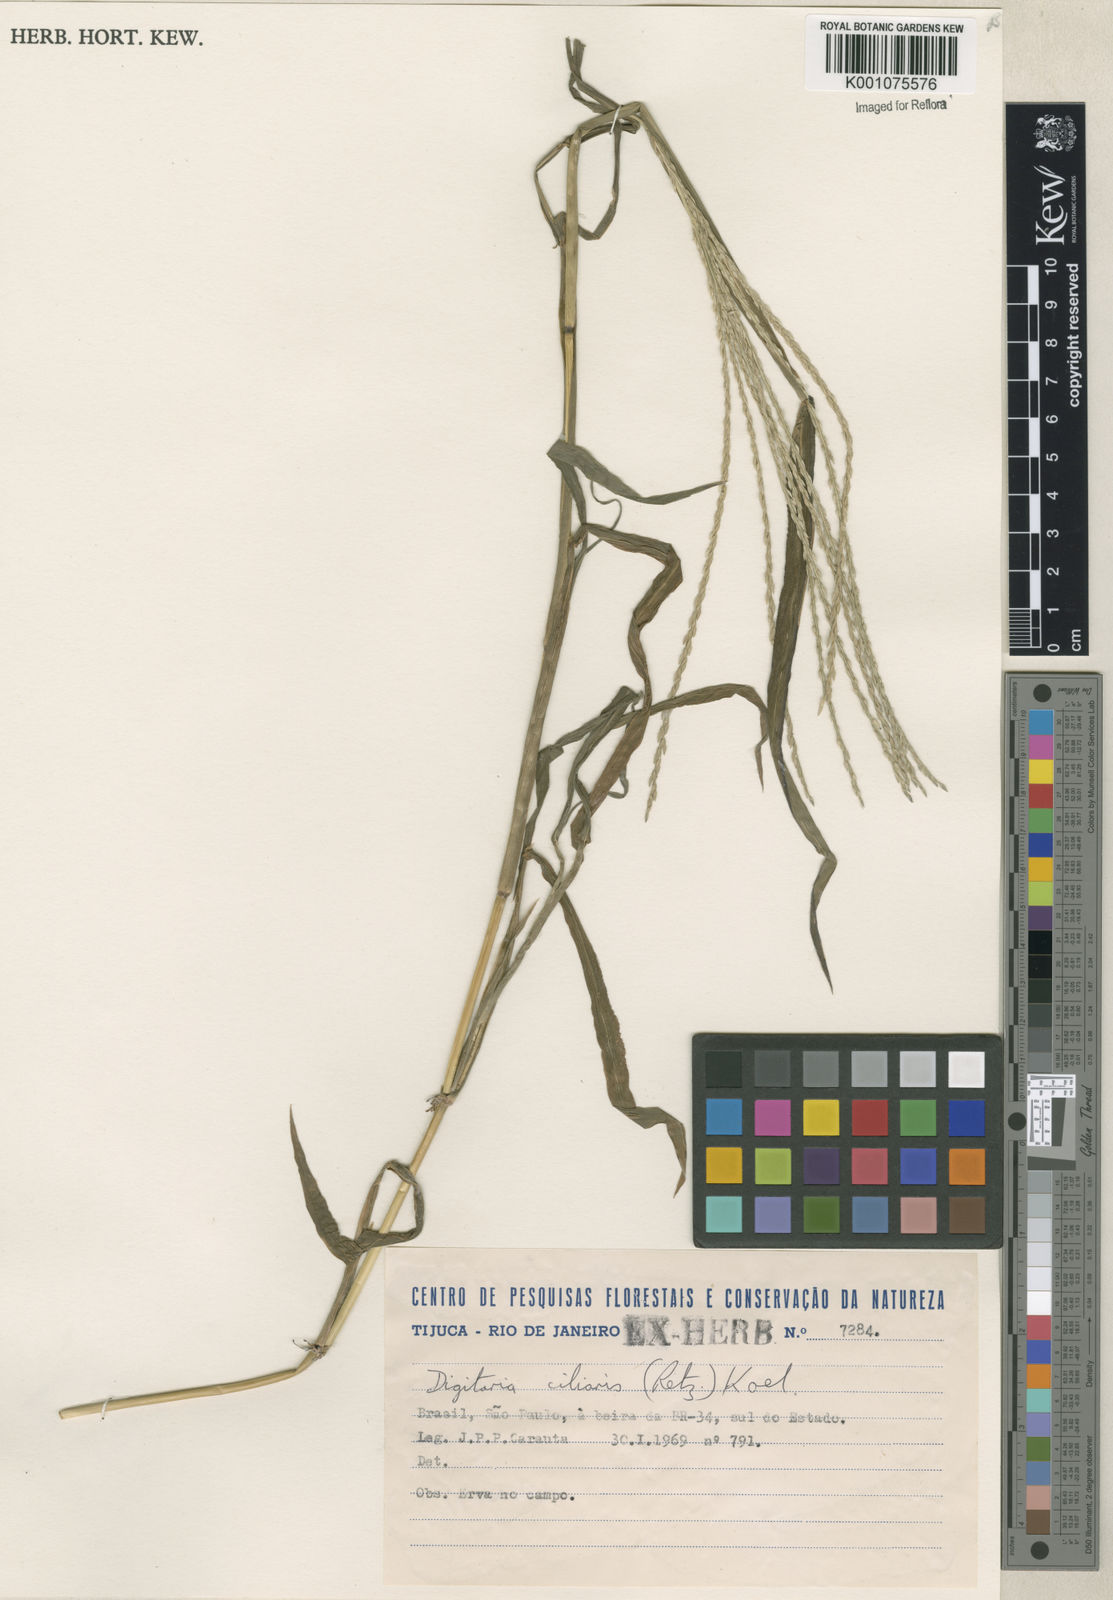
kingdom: Plantae
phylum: Tracheophyta
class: Liliopsida
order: Poales
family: Poaceae
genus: Digitaria
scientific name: Digitaria ciliaris
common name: Tropical finger-grass
